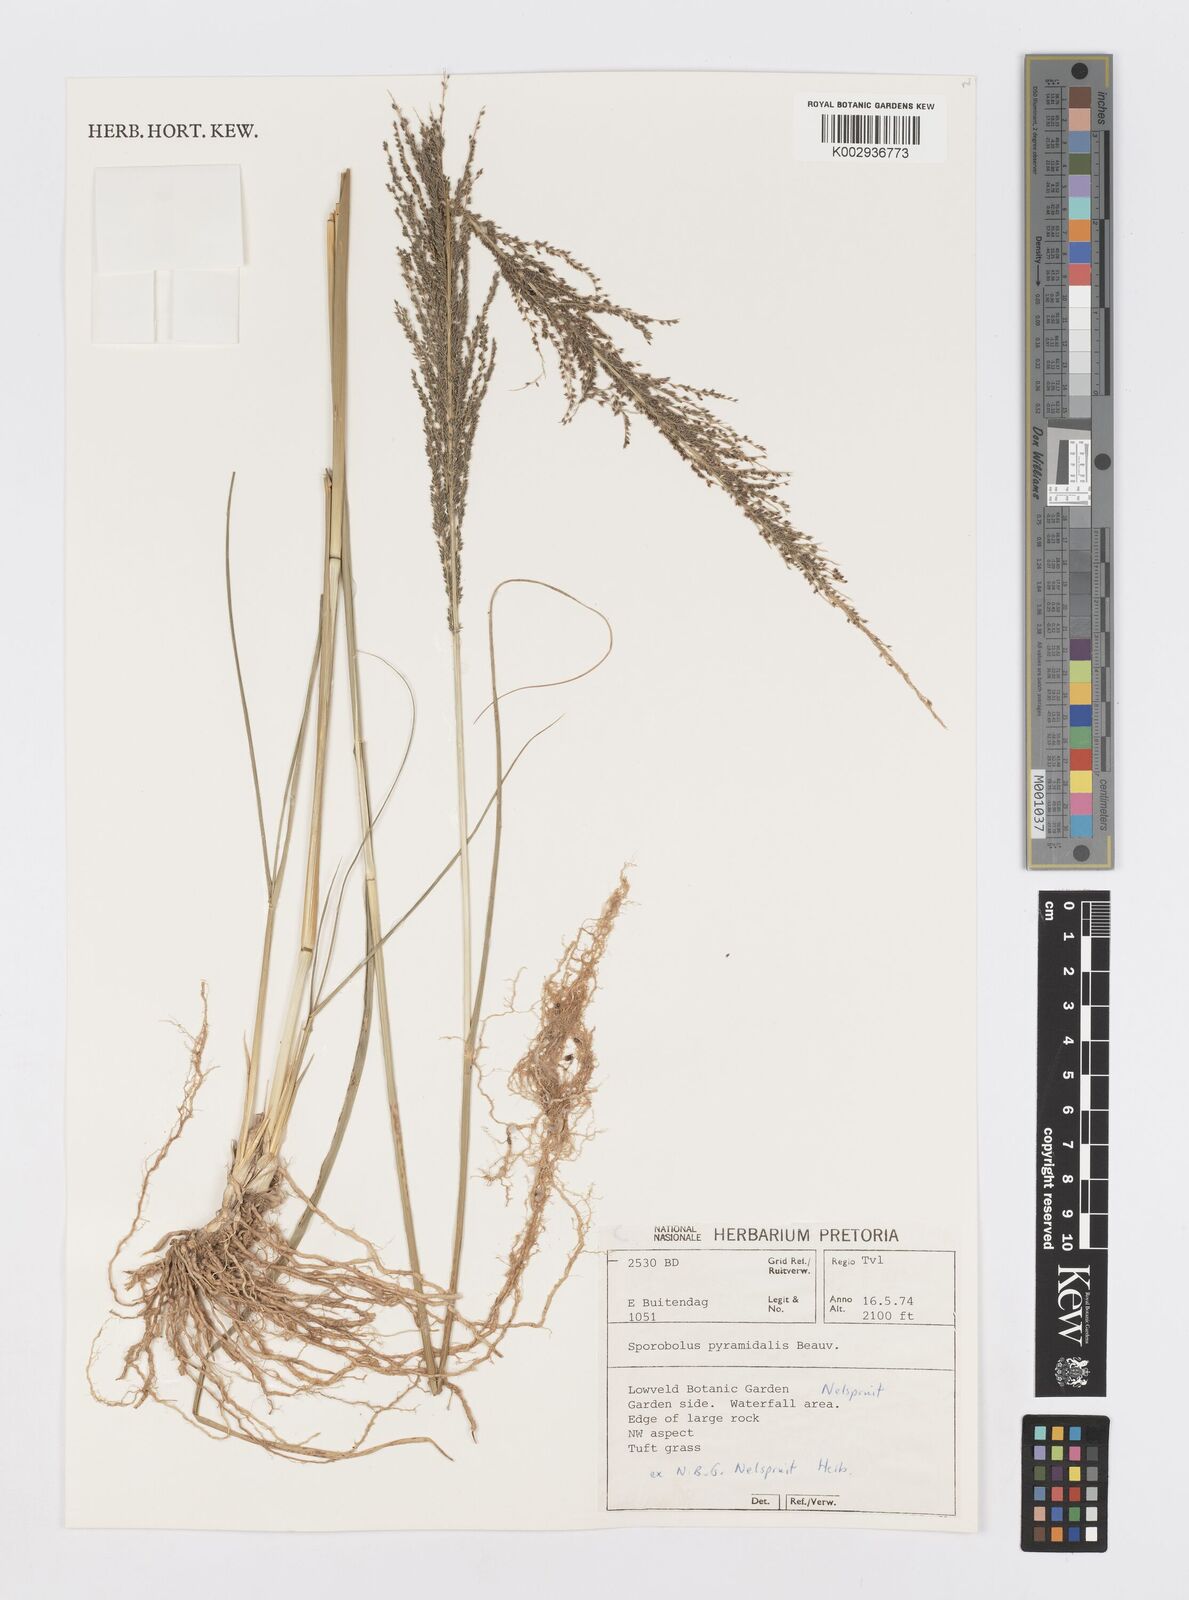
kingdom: Plantae
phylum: Tracheophyta
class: Liliopsida
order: Poales
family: Poaceae
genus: Sporobolus
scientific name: Sporobolus pyramidalis
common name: West indian dropseed
